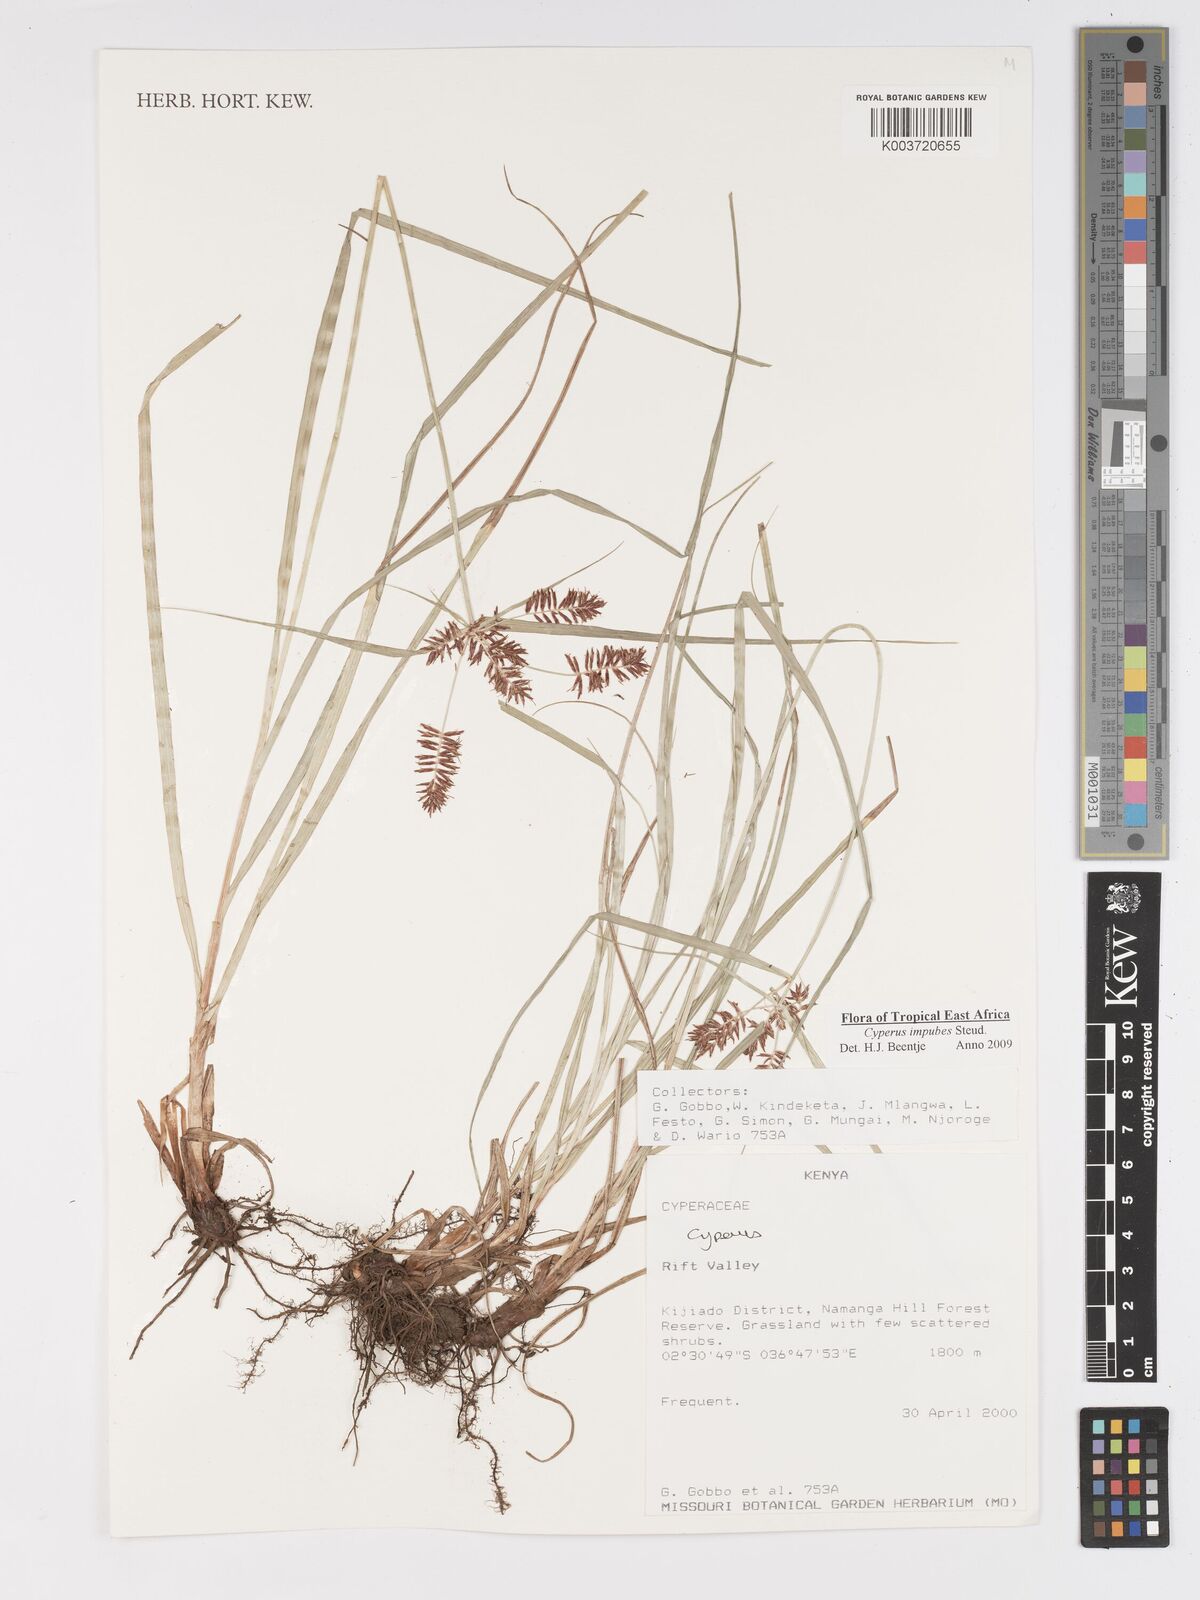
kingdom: Plantae
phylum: Tracheophyta
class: Liliopsida
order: Poales
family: Cyperaceae
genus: Cyperus
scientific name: Cyperus impubes
